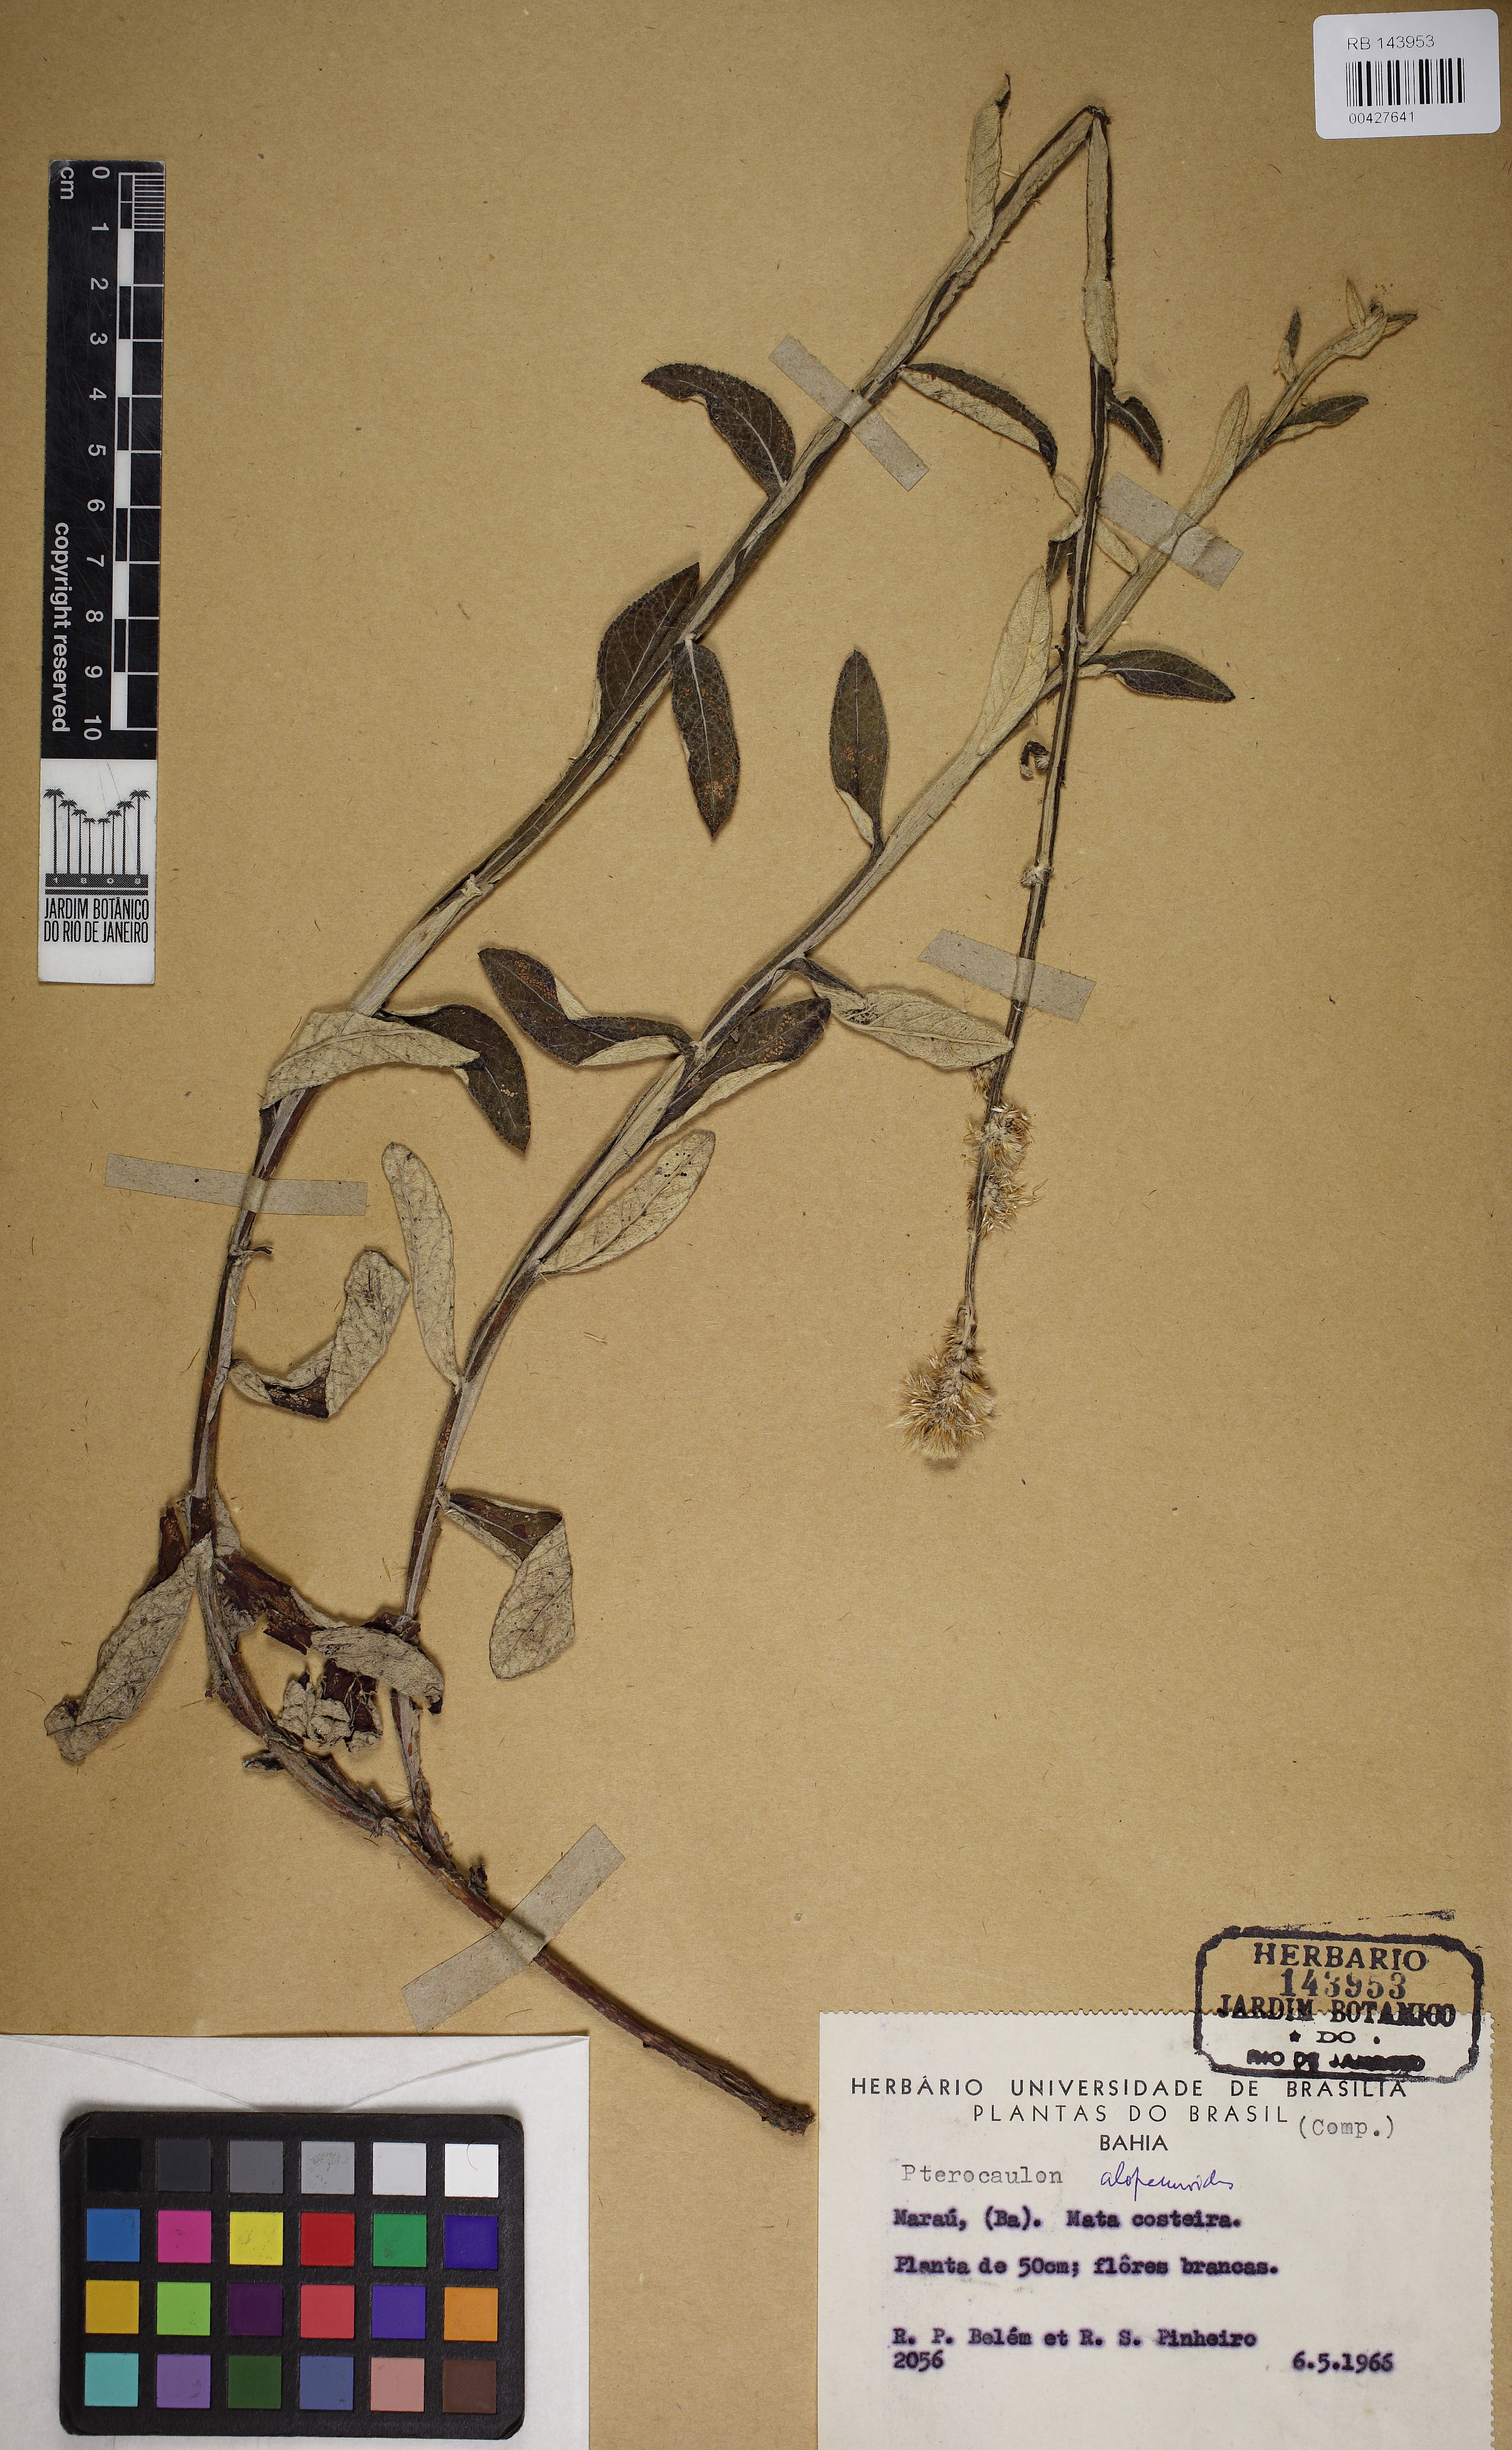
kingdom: Plantae
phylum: Tracheophyta
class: Magnoliopsida
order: Asterales
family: Asteraceae
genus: Pterocaulon
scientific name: Pterocaulon alopecuroides
